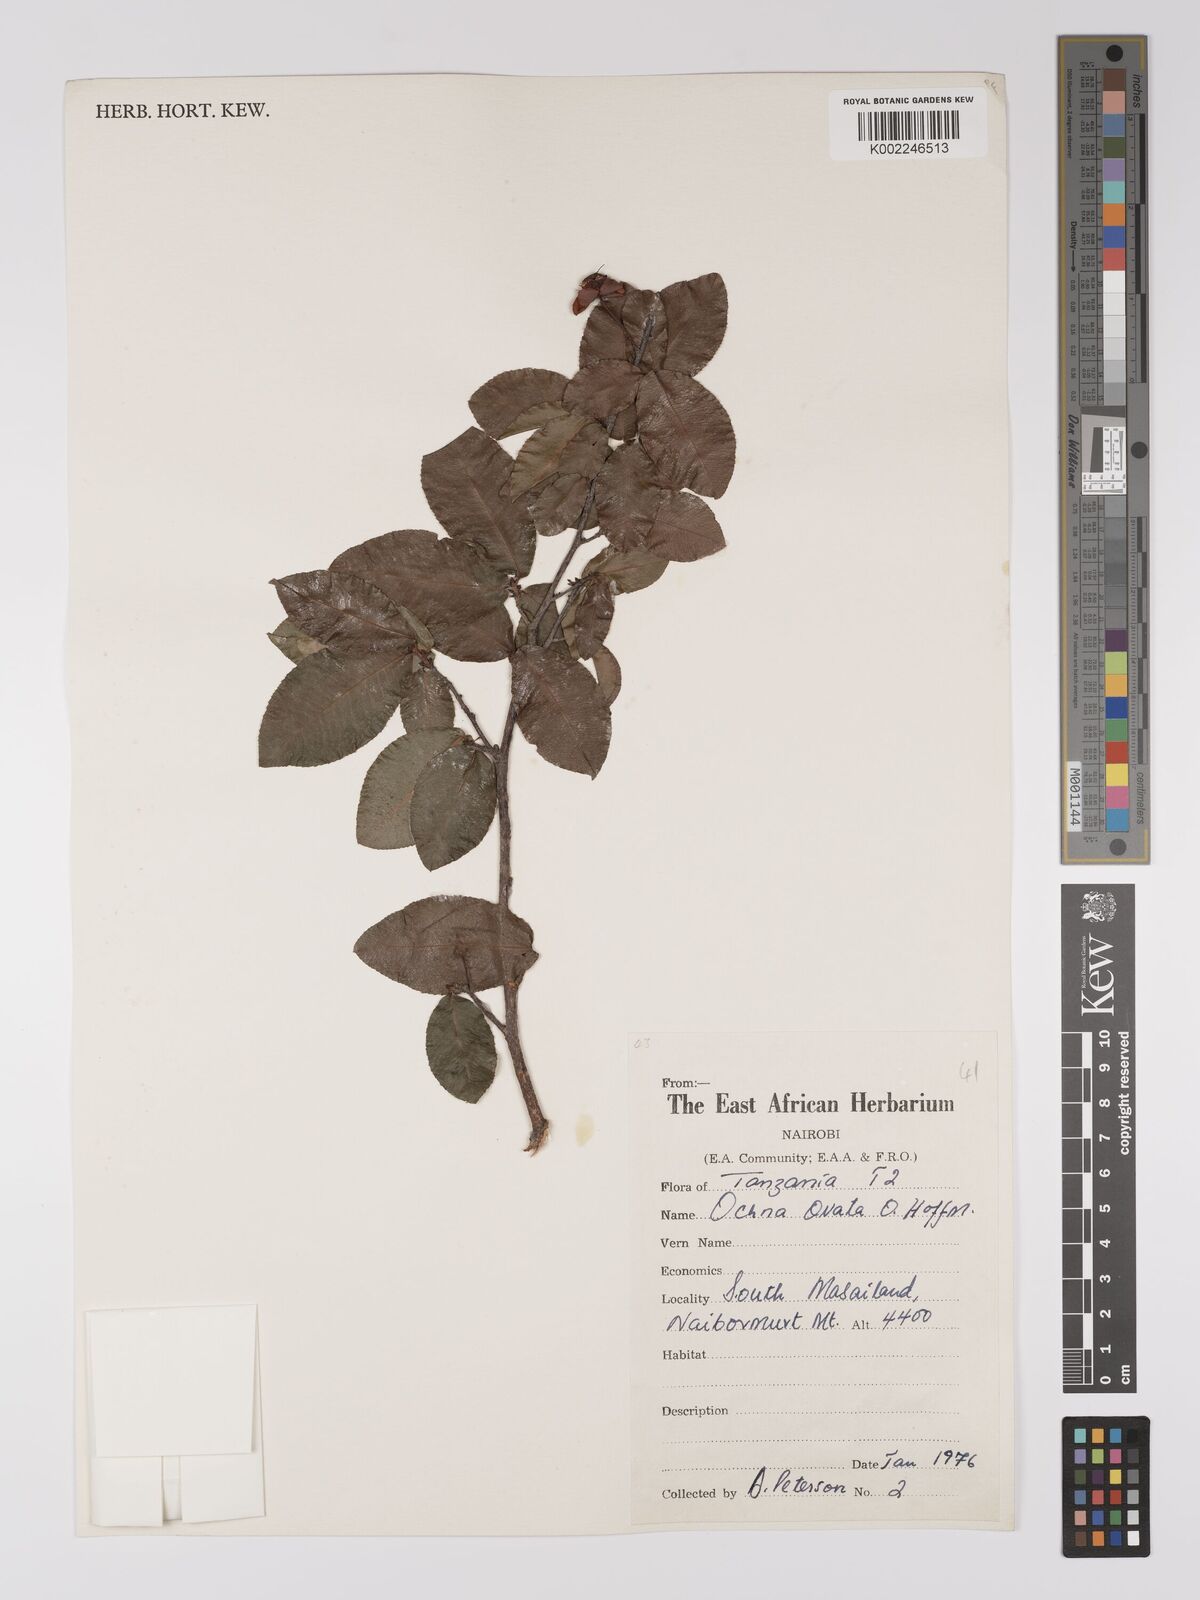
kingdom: Plantae
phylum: Tracheophyta
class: Magnoliopsida
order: Malpighiales
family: Ochnaceae
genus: Ochna
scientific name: Ochna ovata
